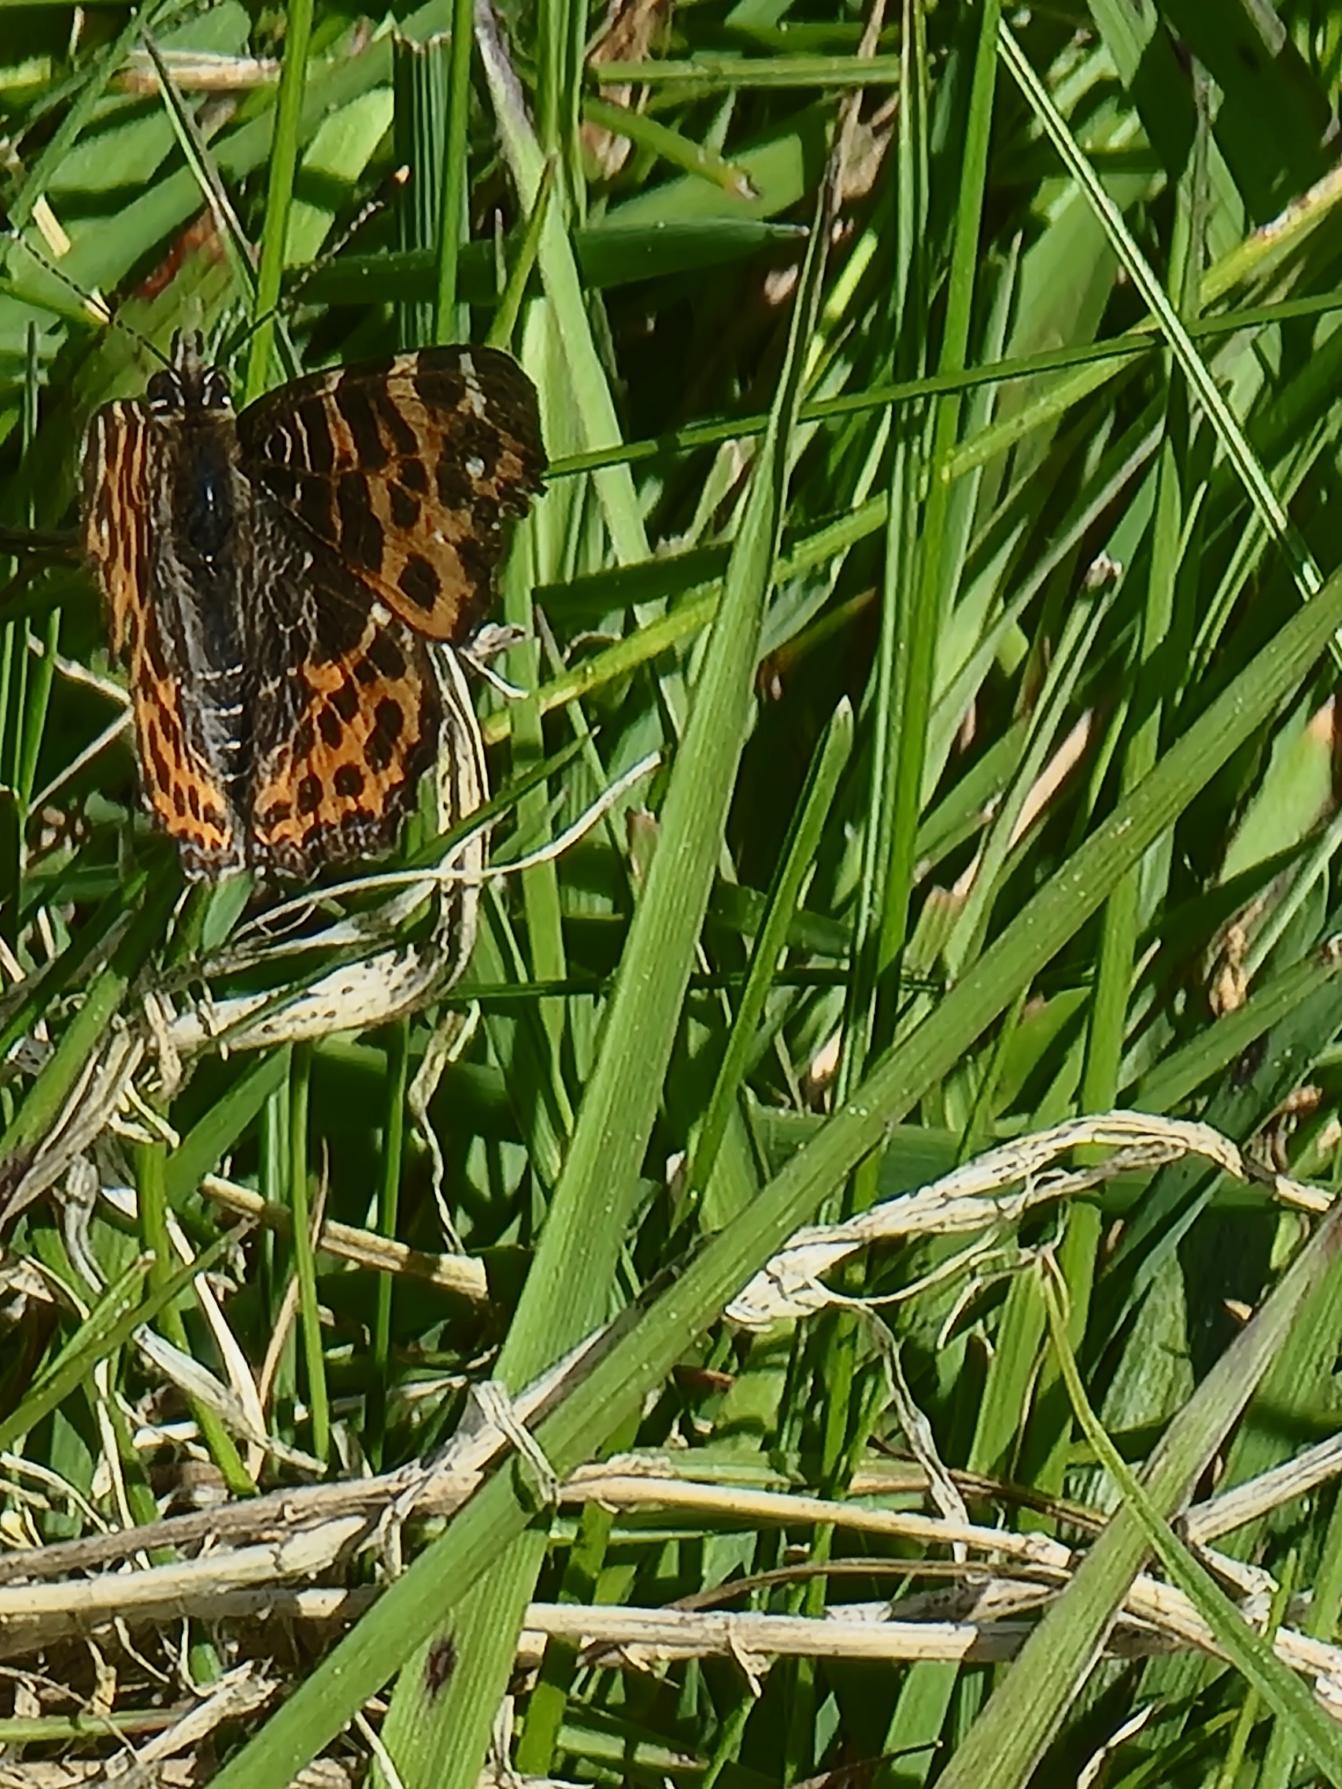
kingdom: Animalia
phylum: Arthropoda
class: Insecta
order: Lepidoptera
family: Nymphalidae
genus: Araschnia
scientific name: Araschnia levana
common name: Nældesommerfugl
